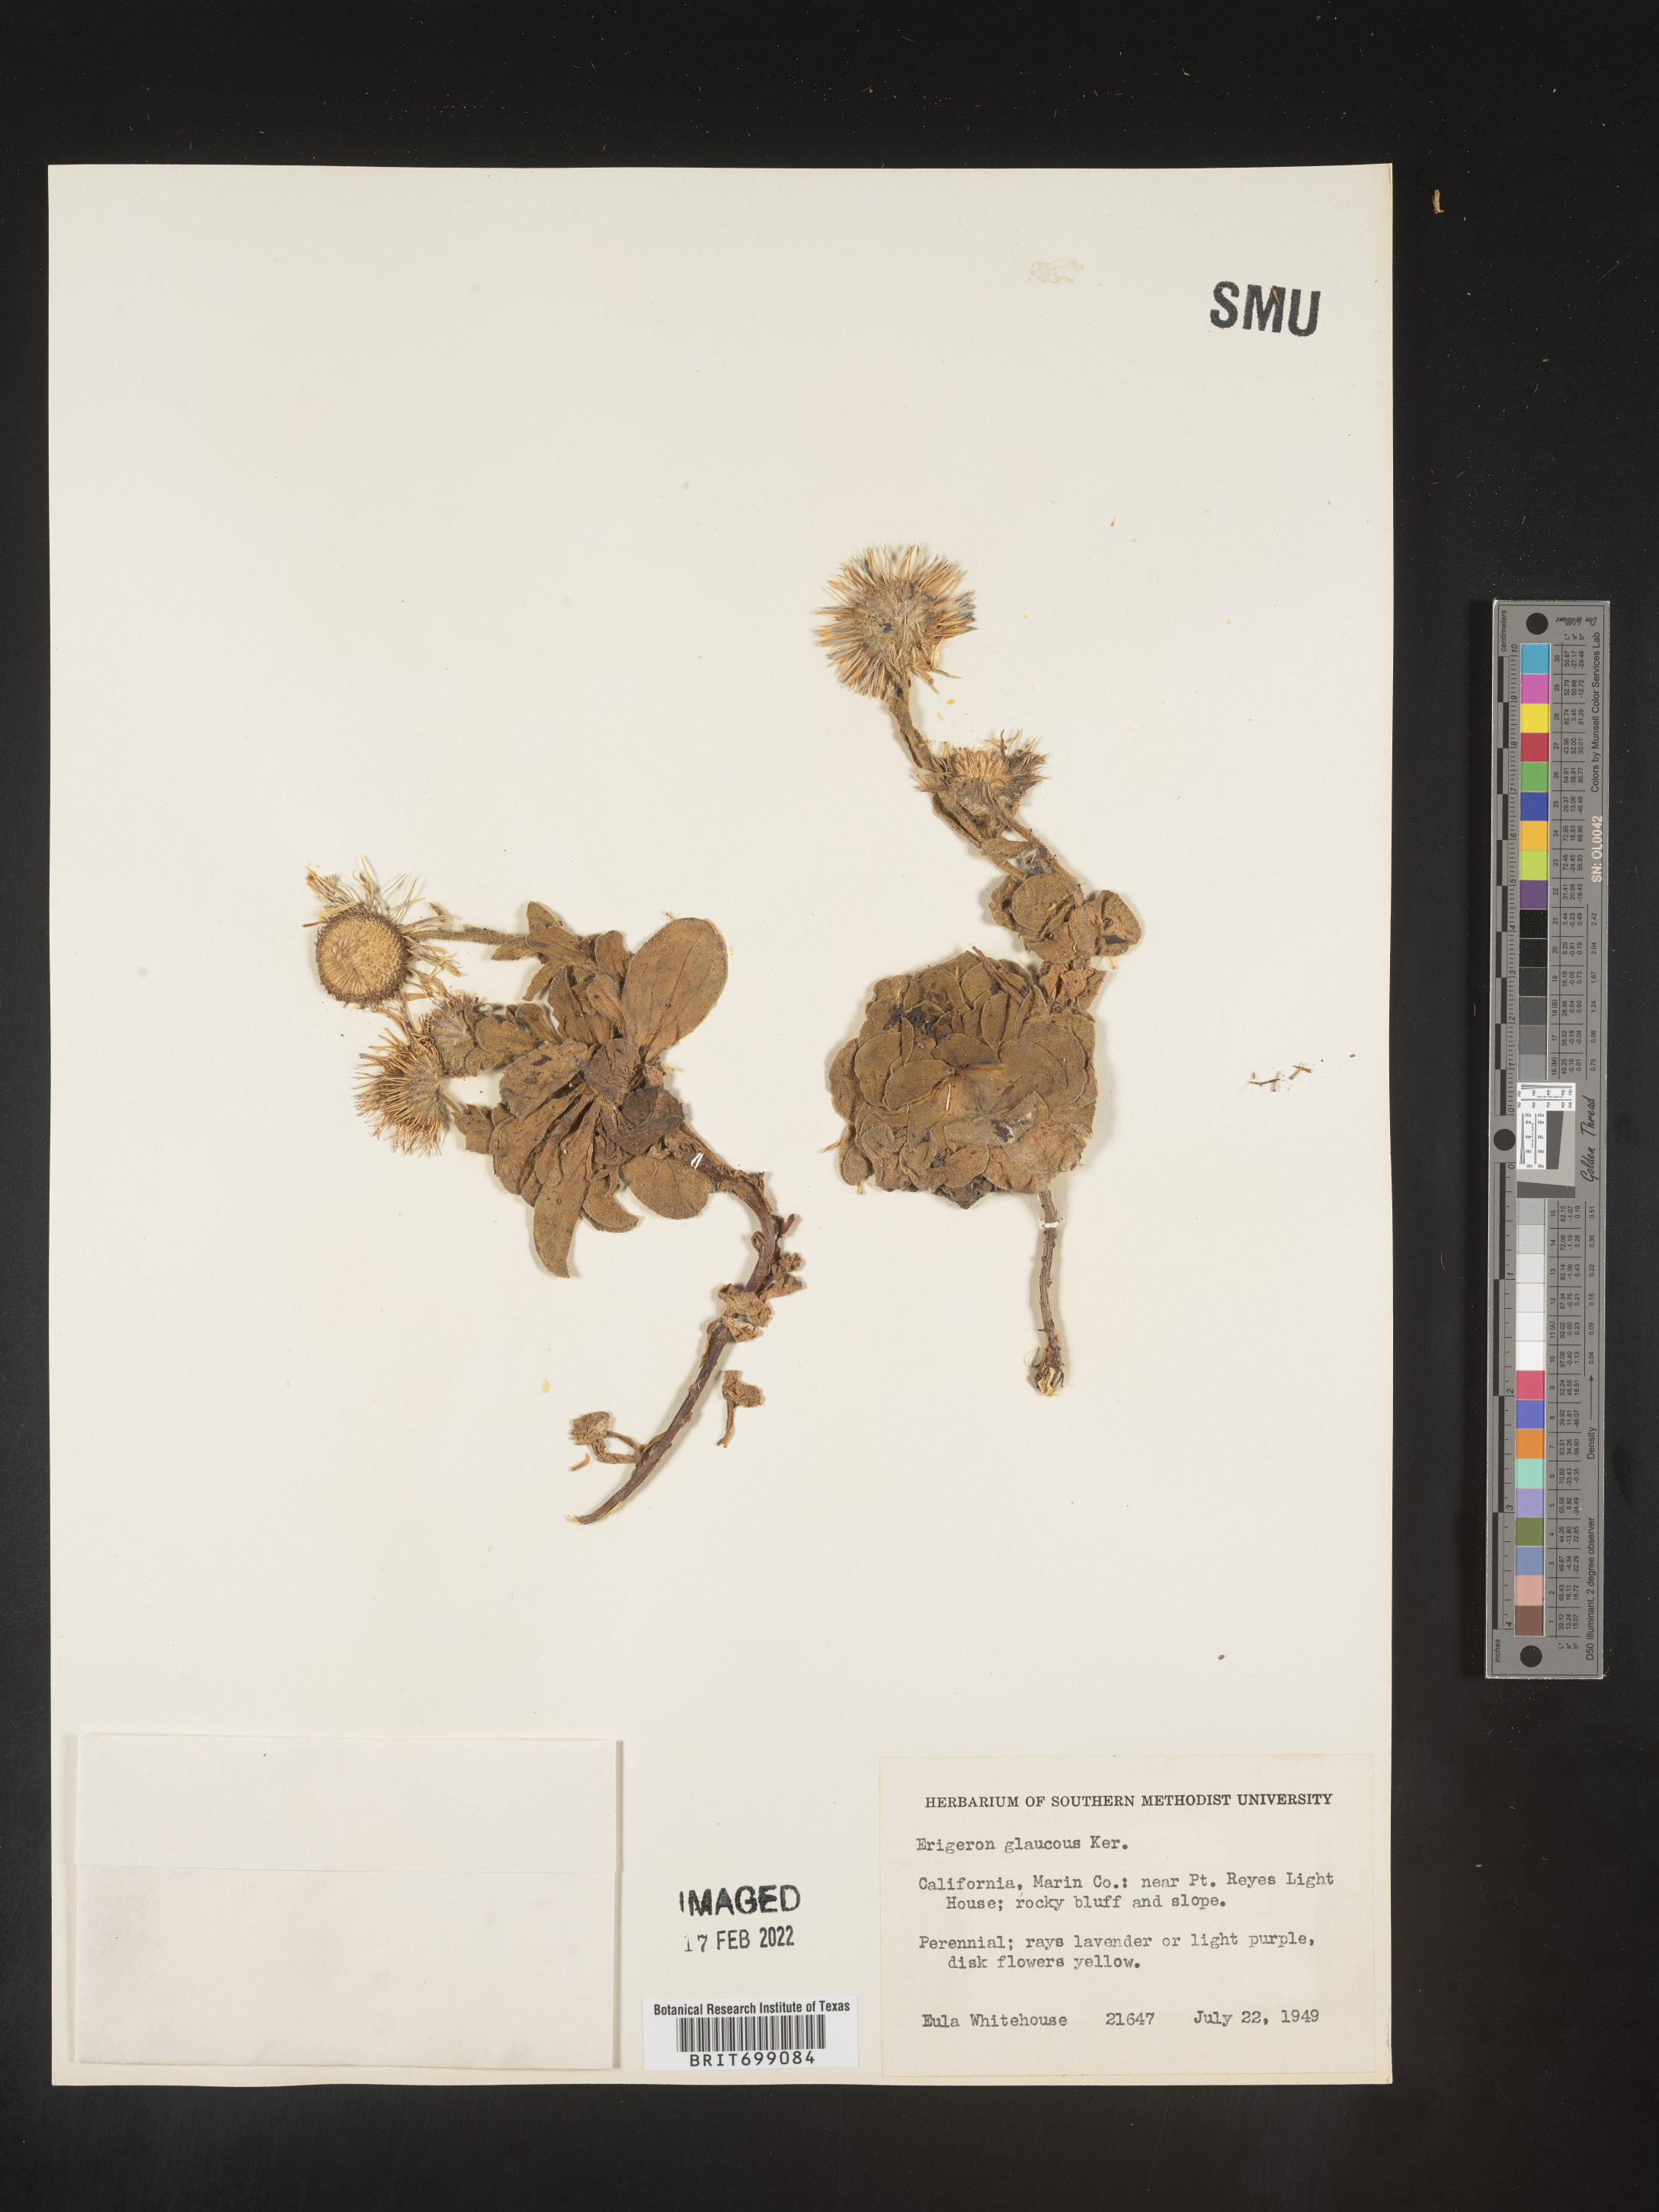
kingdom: Plantae
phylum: Tracheophyta
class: Magnoliopsida
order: Asterales
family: Asteraceae
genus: Erigeron
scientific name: Erigeron glaucus
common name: Seaside daisy
